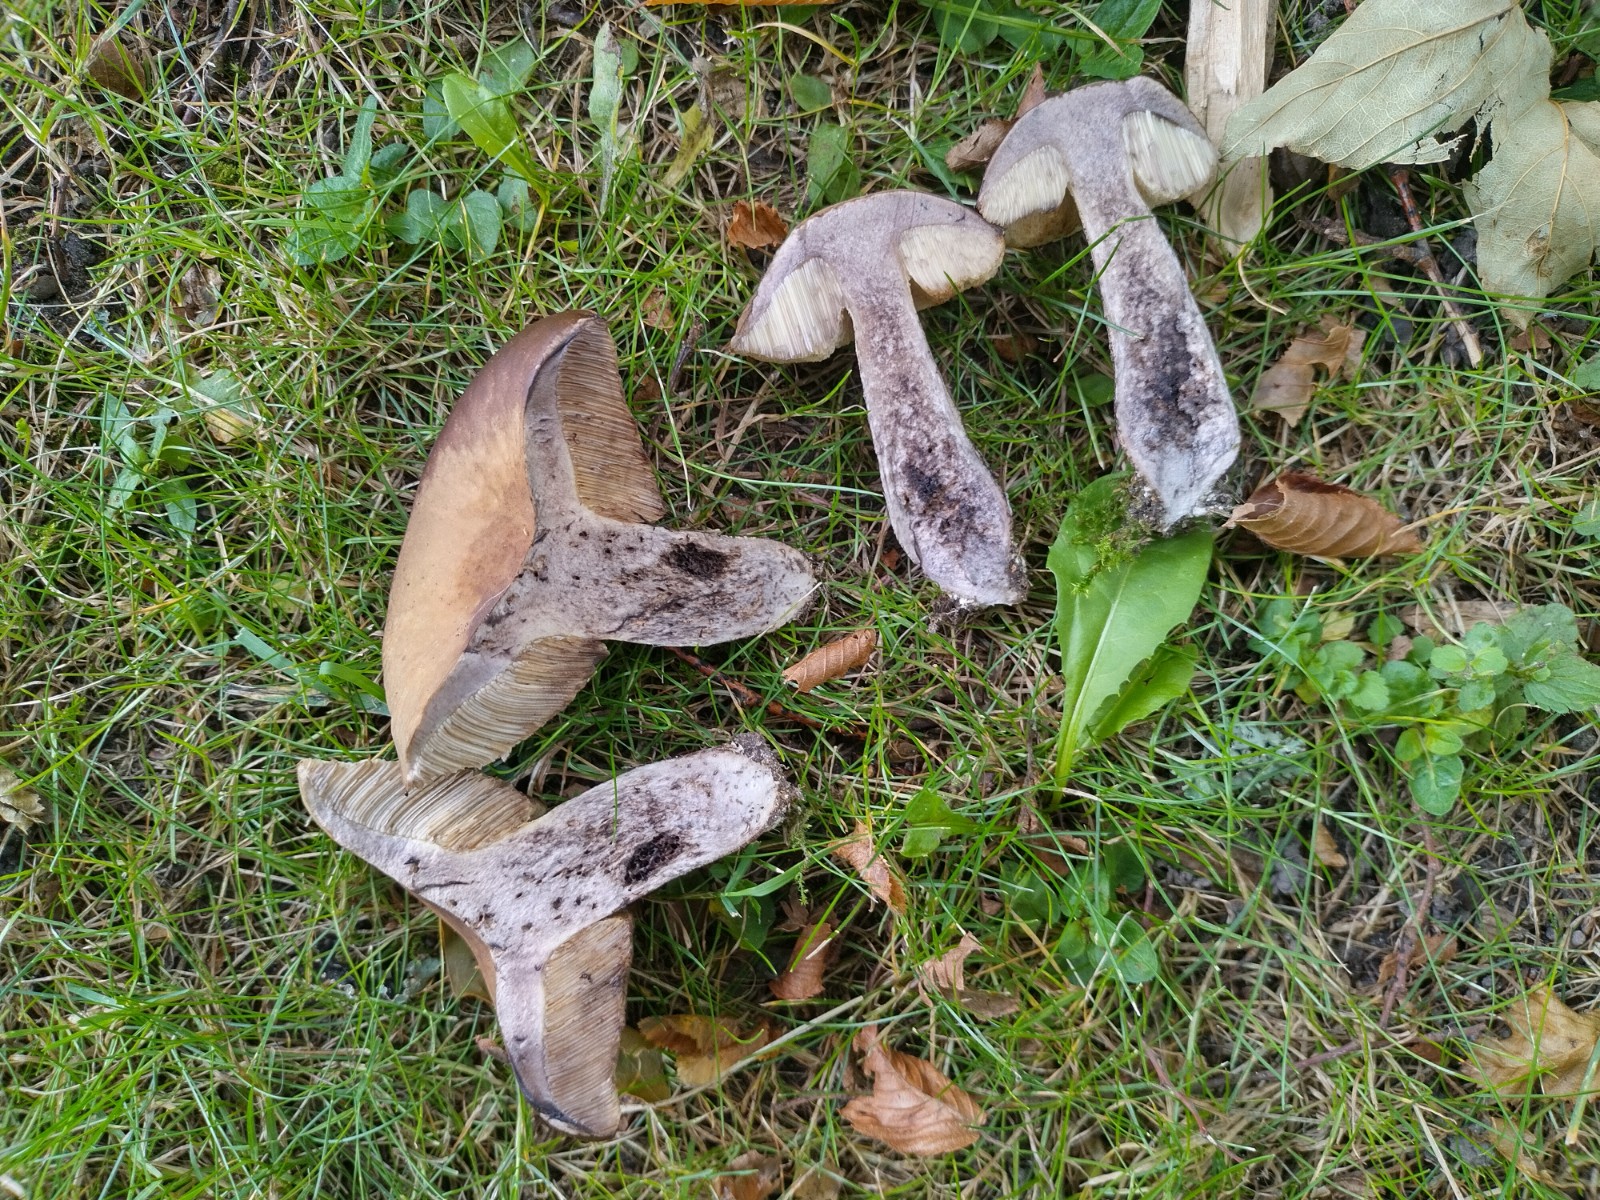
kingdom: Fungi
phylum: Basidiomycota
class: Agaricomycetes
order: Boletales
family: Boletaceae
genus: Leccinellum
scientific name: Leccinellum pseudoscabrum
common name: avnbøg-skælrørhat
